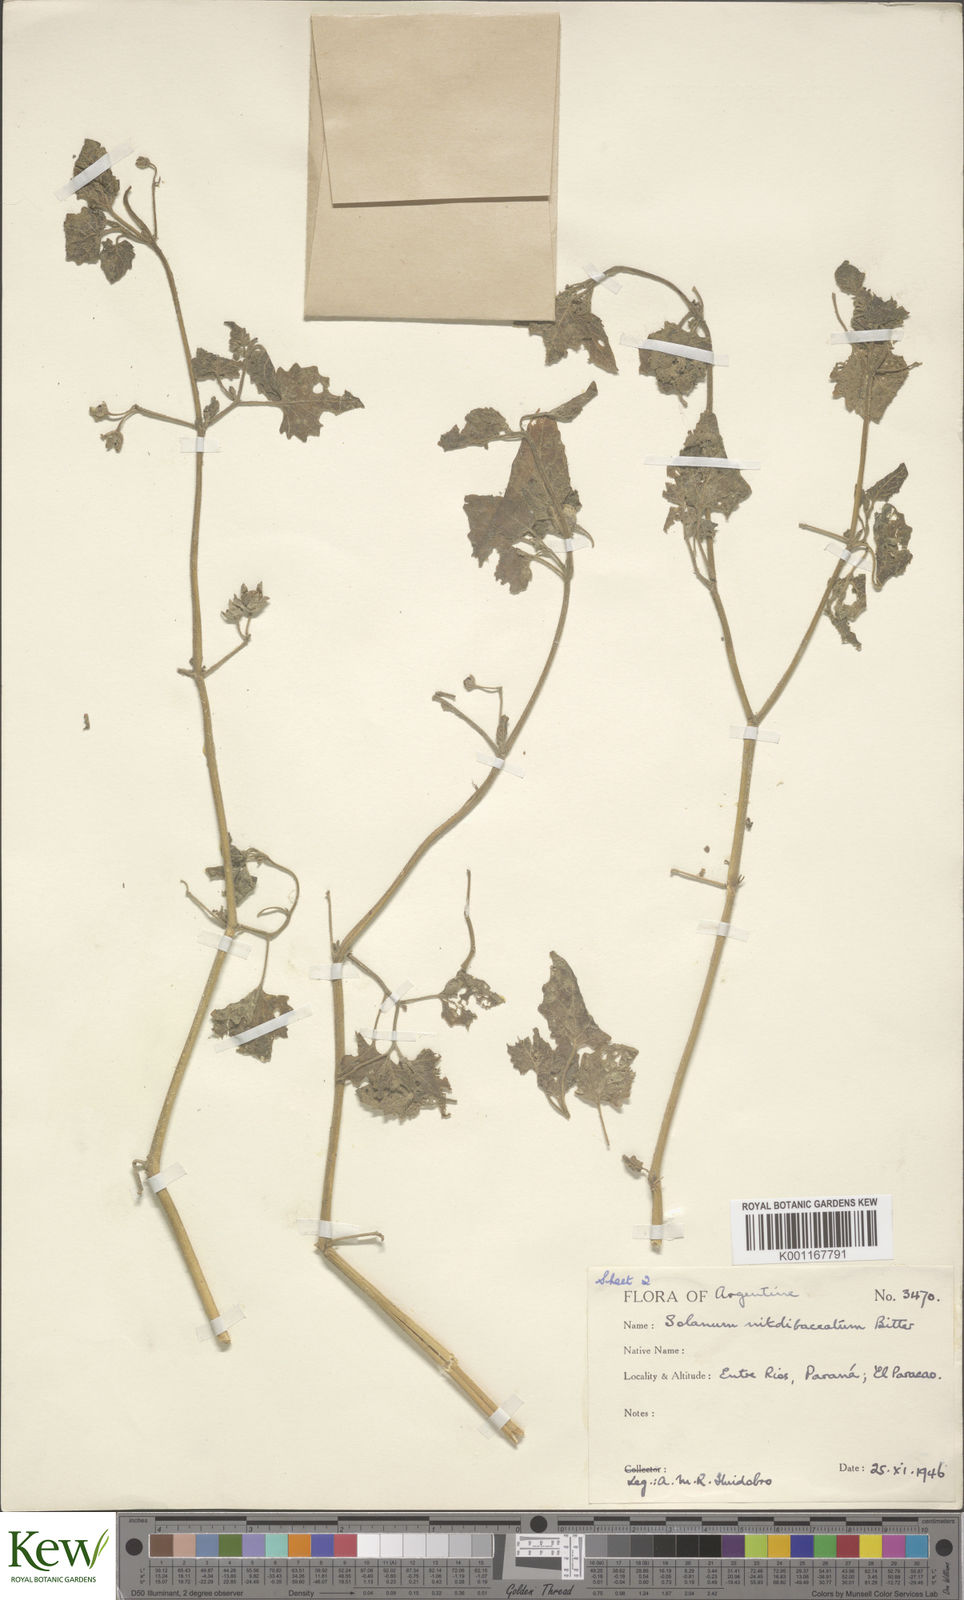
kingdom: Plantae
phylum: Tracheophyta
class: Magnoliopsida
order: Solanales
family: Solanaceae
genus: Solanum
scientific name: Solanum tweedieanum
